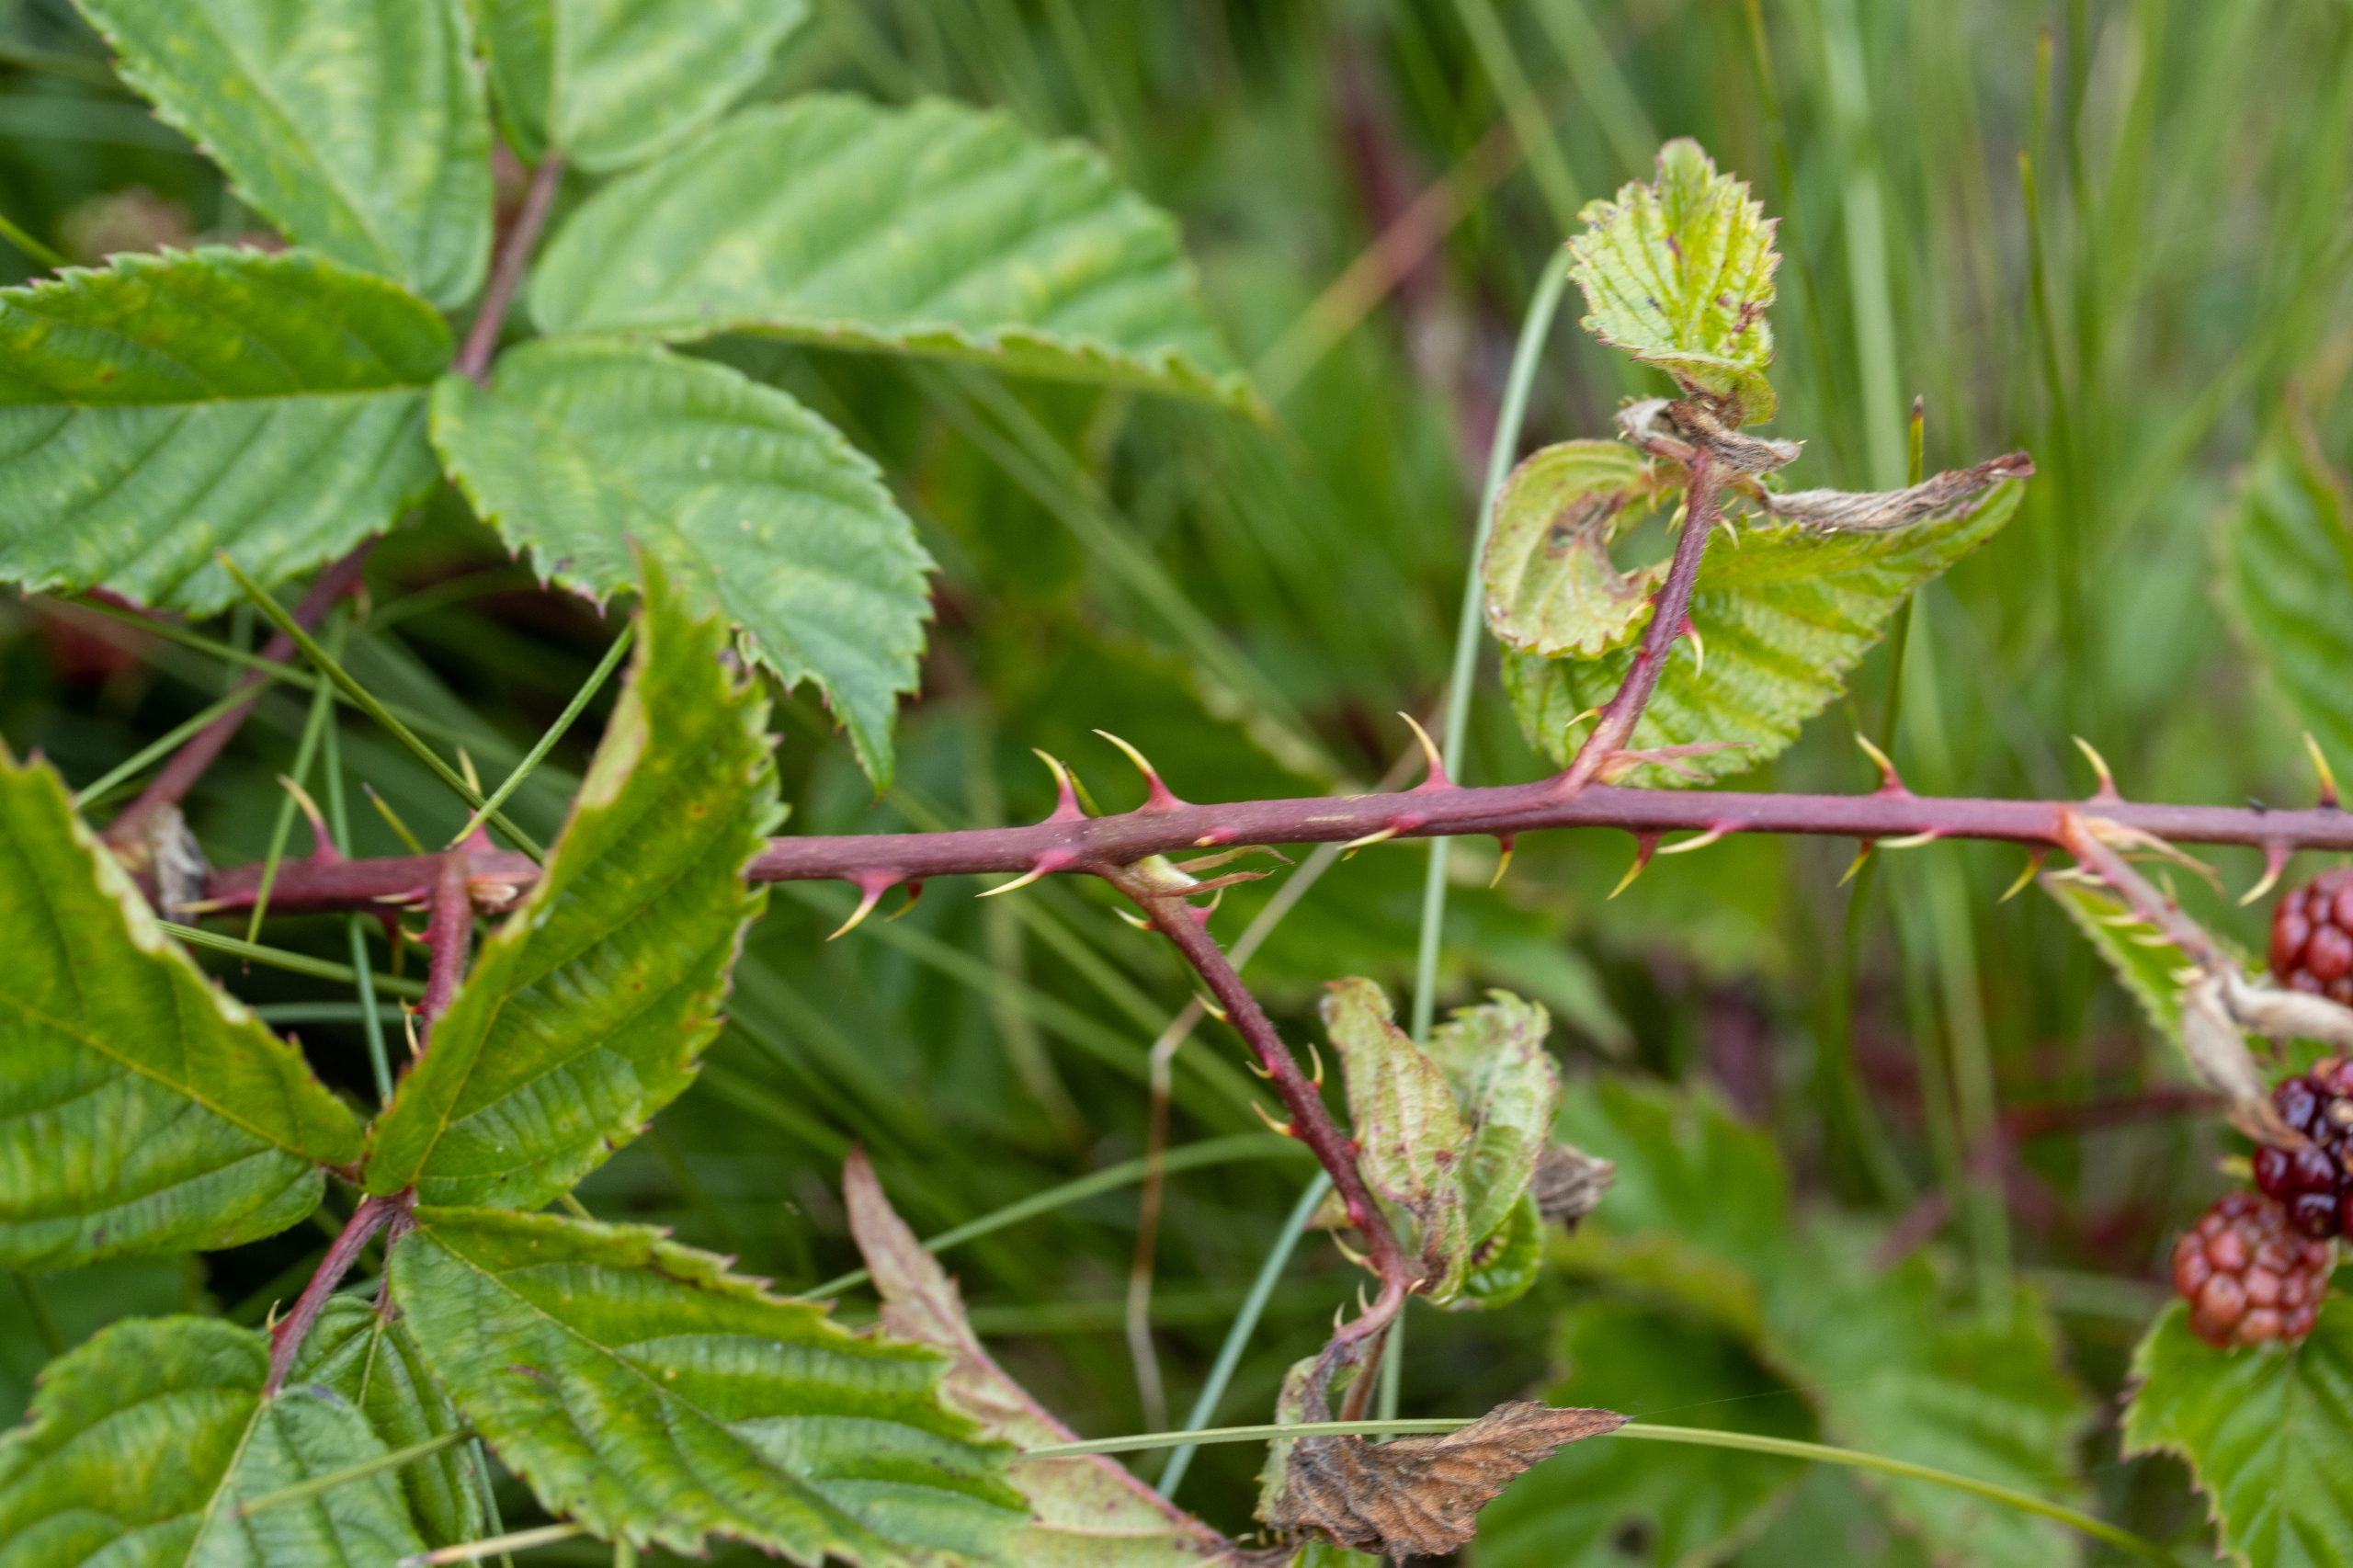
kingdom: Plantae
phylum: Tracheophyta
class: Magnoliopsida
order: Rosales
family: Rosaceae
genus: Rubus
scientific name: Rubus plicatus
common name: Almindelig brombær
